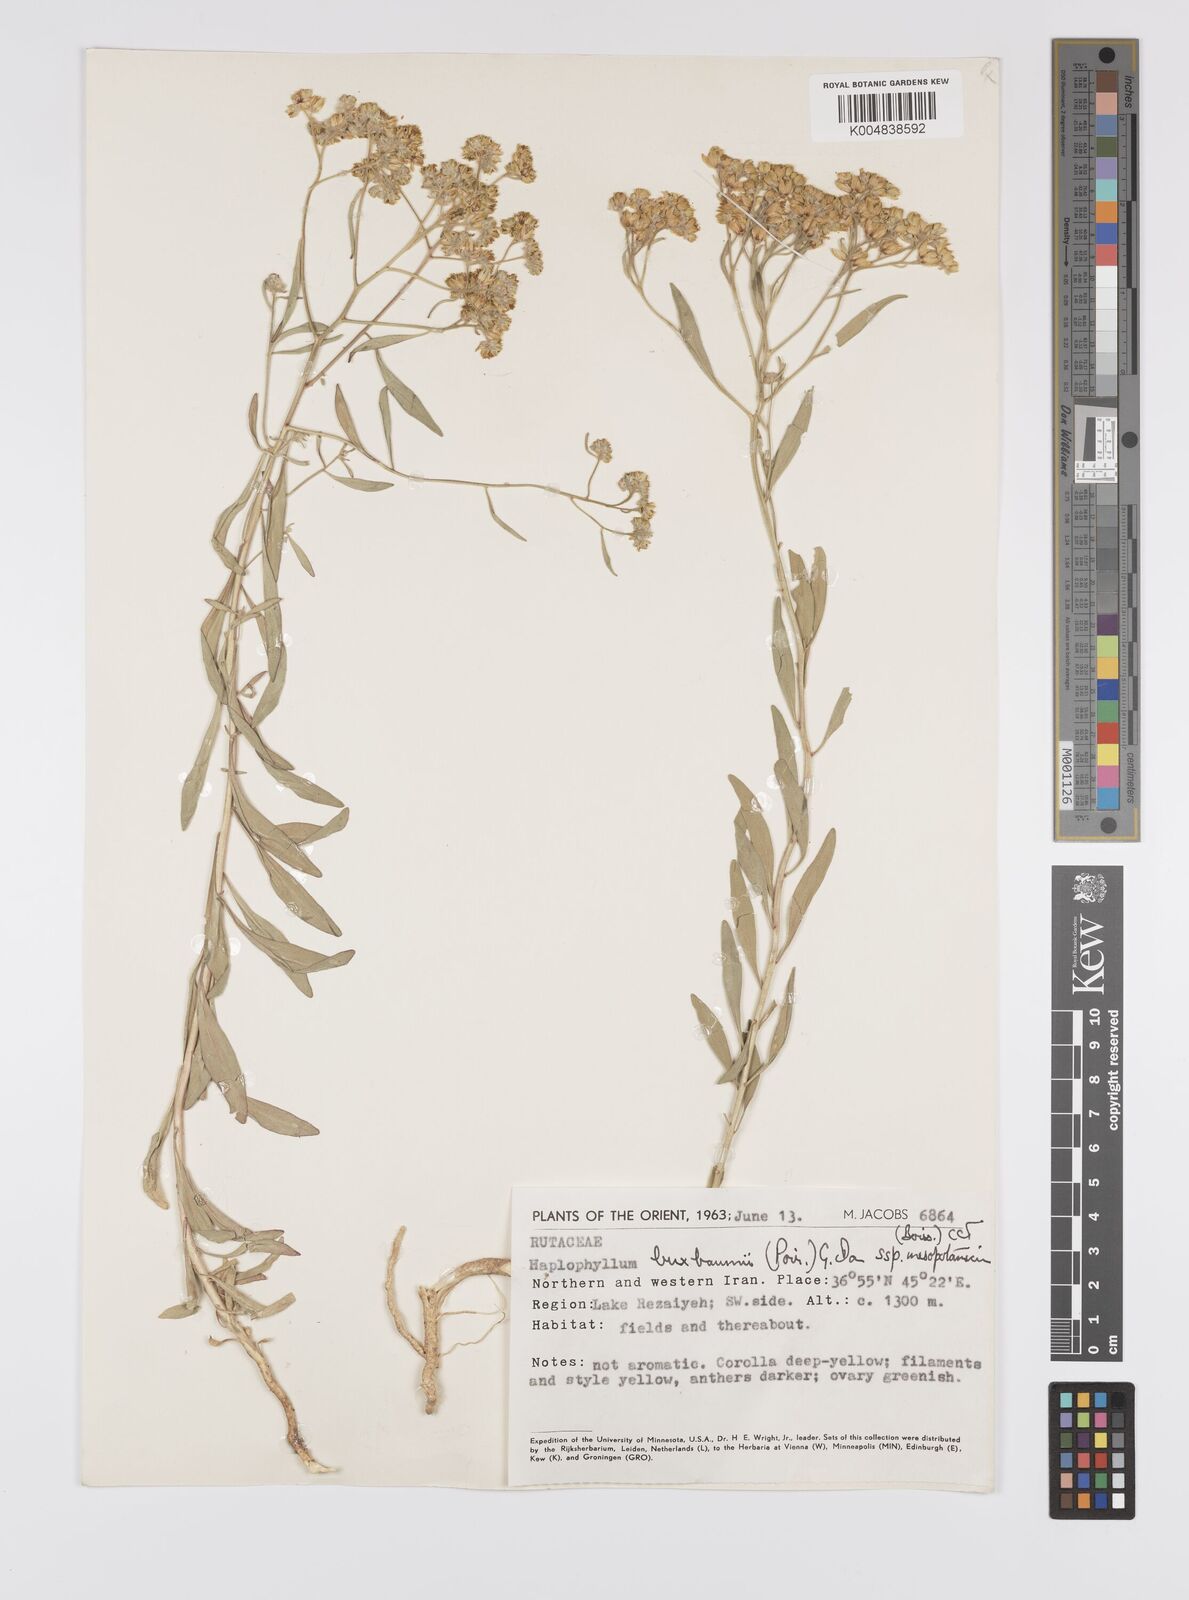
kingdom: Plantae
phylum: Tracheophyta
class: Magnoliopsida
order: Sapindales
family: Rutaceae
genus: Haplophyllum
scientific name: Haplophyllum buxbaumii
